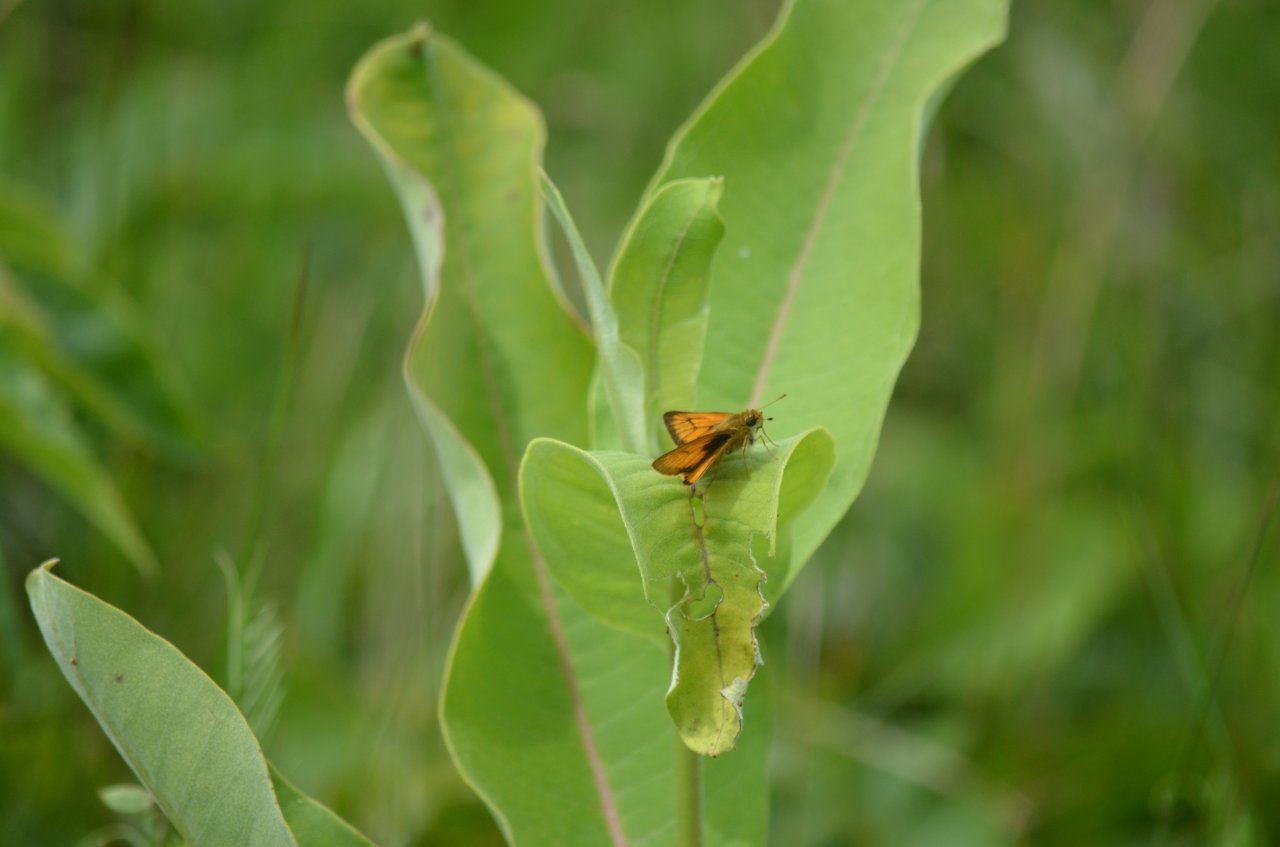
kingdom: Animalia
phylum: Arthropoda
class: Insecta
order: Lepidoptera
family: Hesperiidae
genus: Atrytone
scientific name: Atrytone delaware
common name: Delaware Skipper
